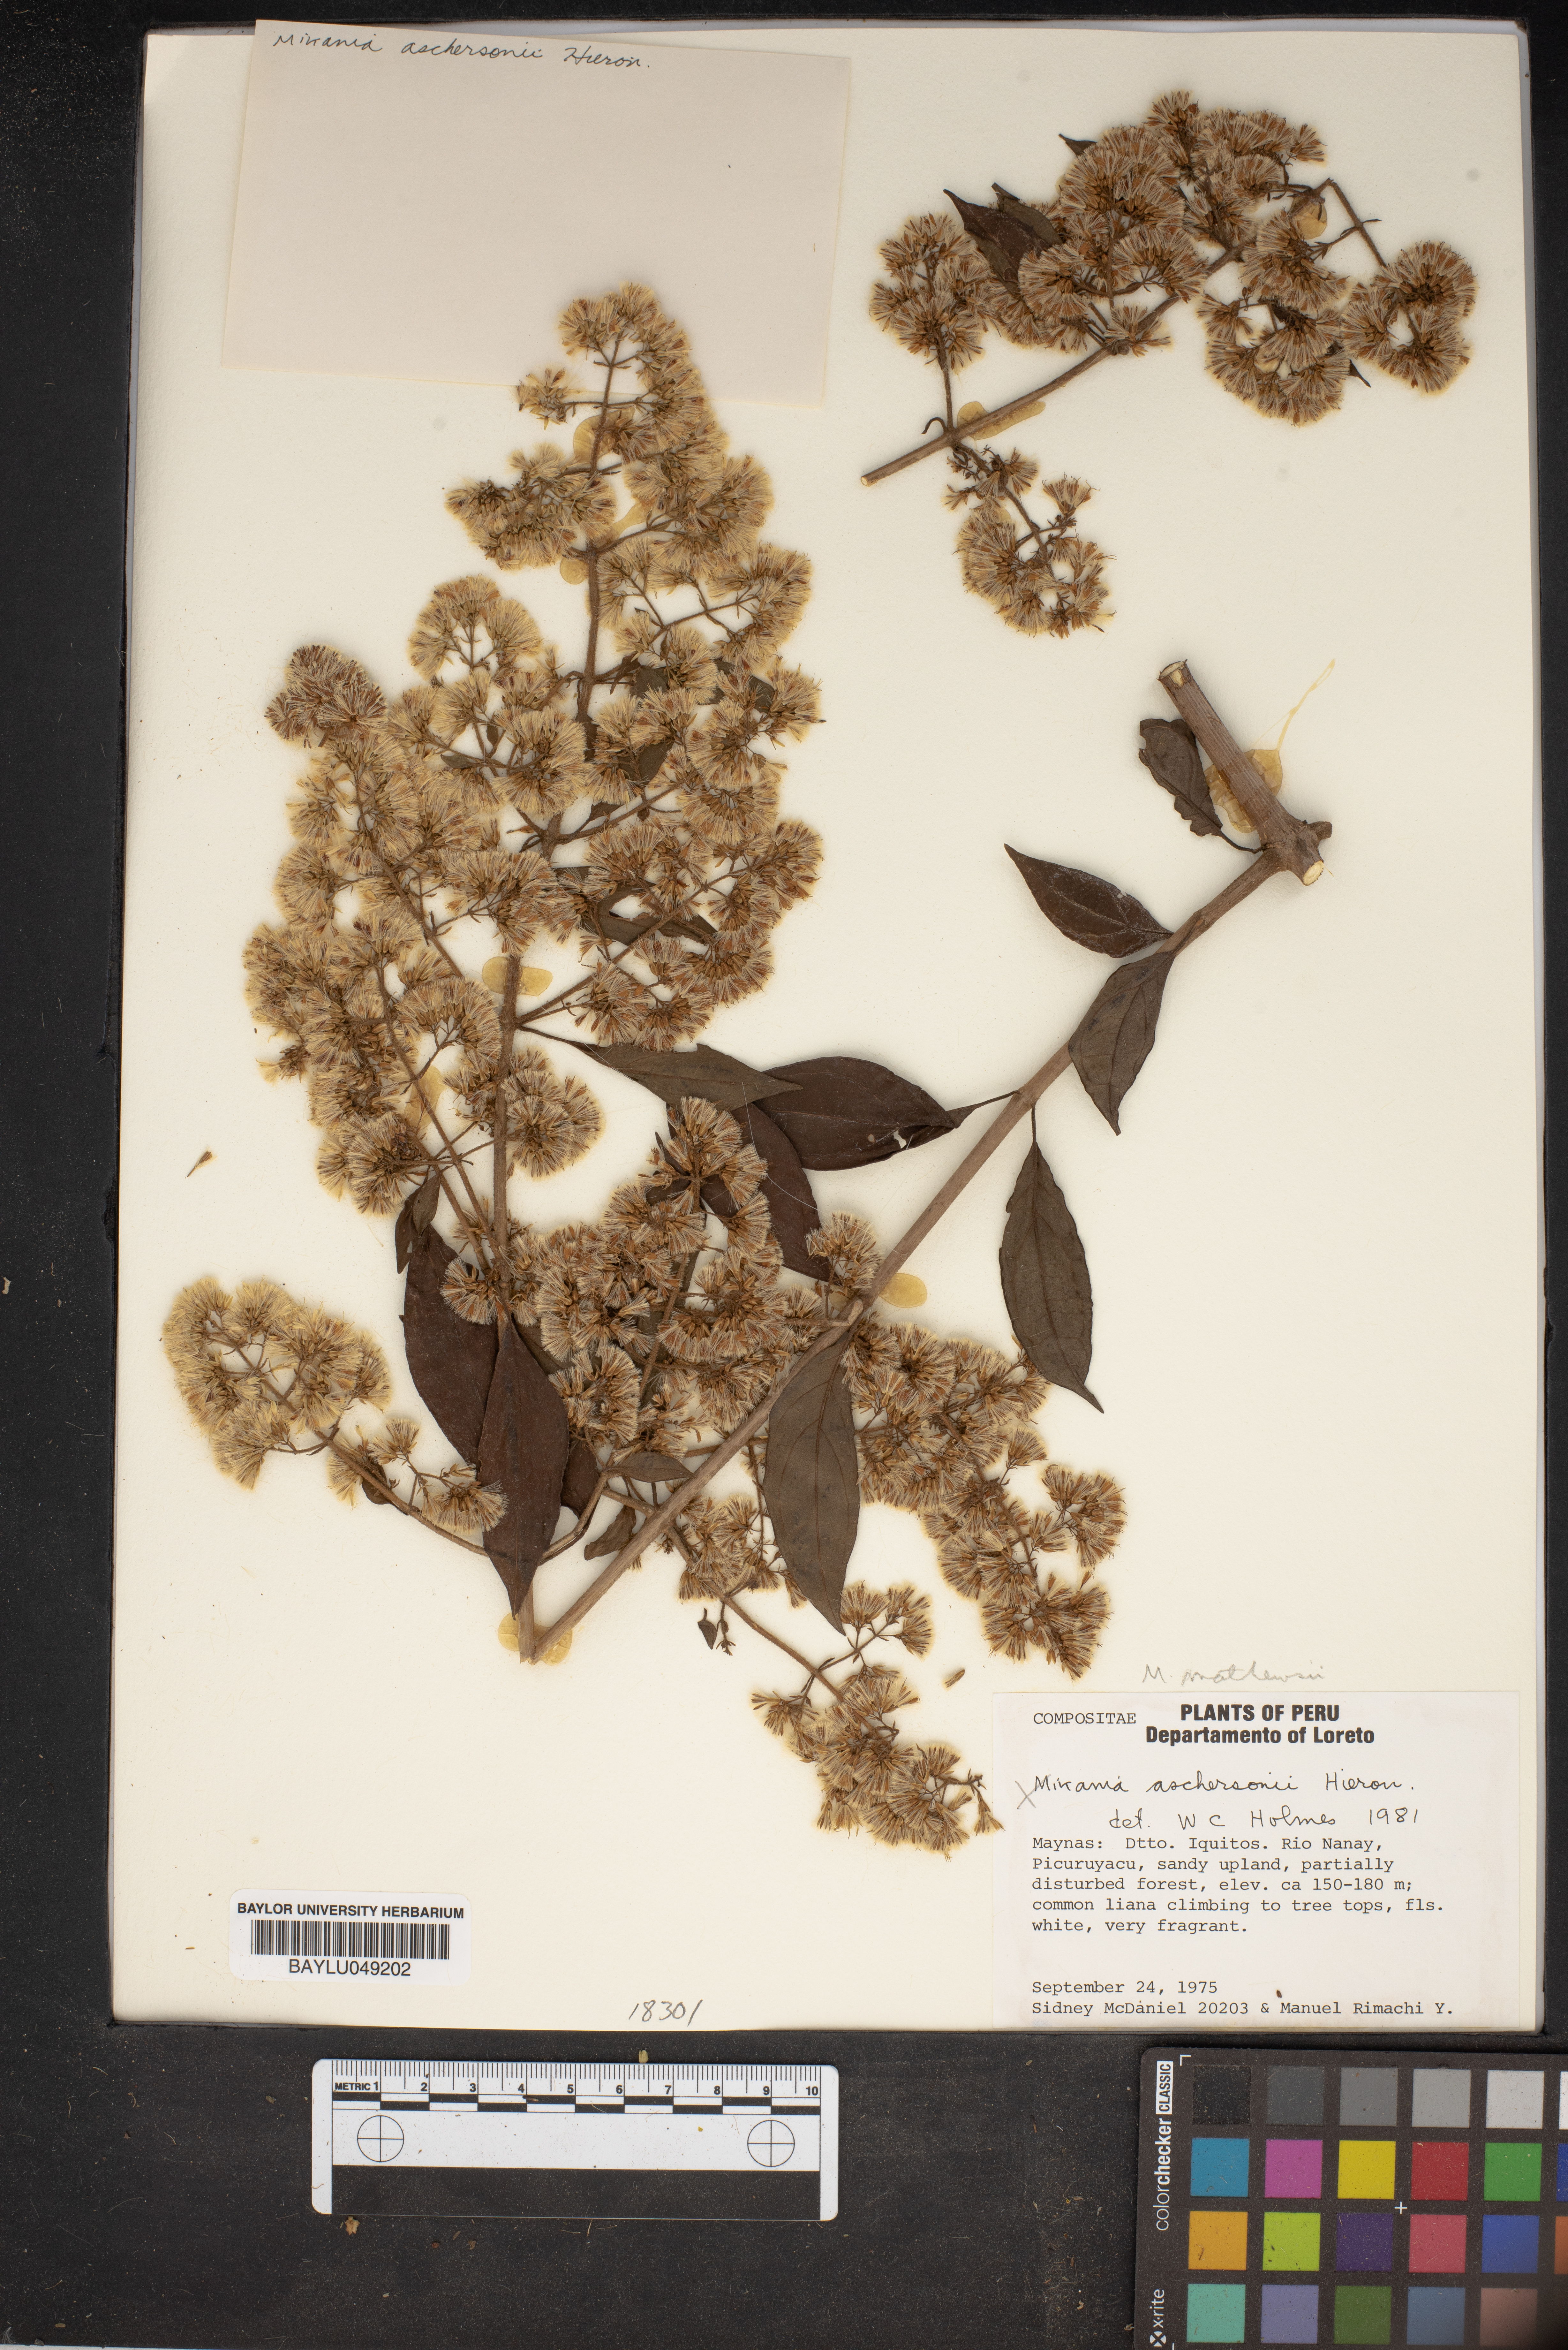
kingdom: Plantae
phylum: Tracheophyta
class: Magnoliopsida
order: Asterales
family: Asteraceae
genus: Mikania
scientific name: Mikania aschersonii
